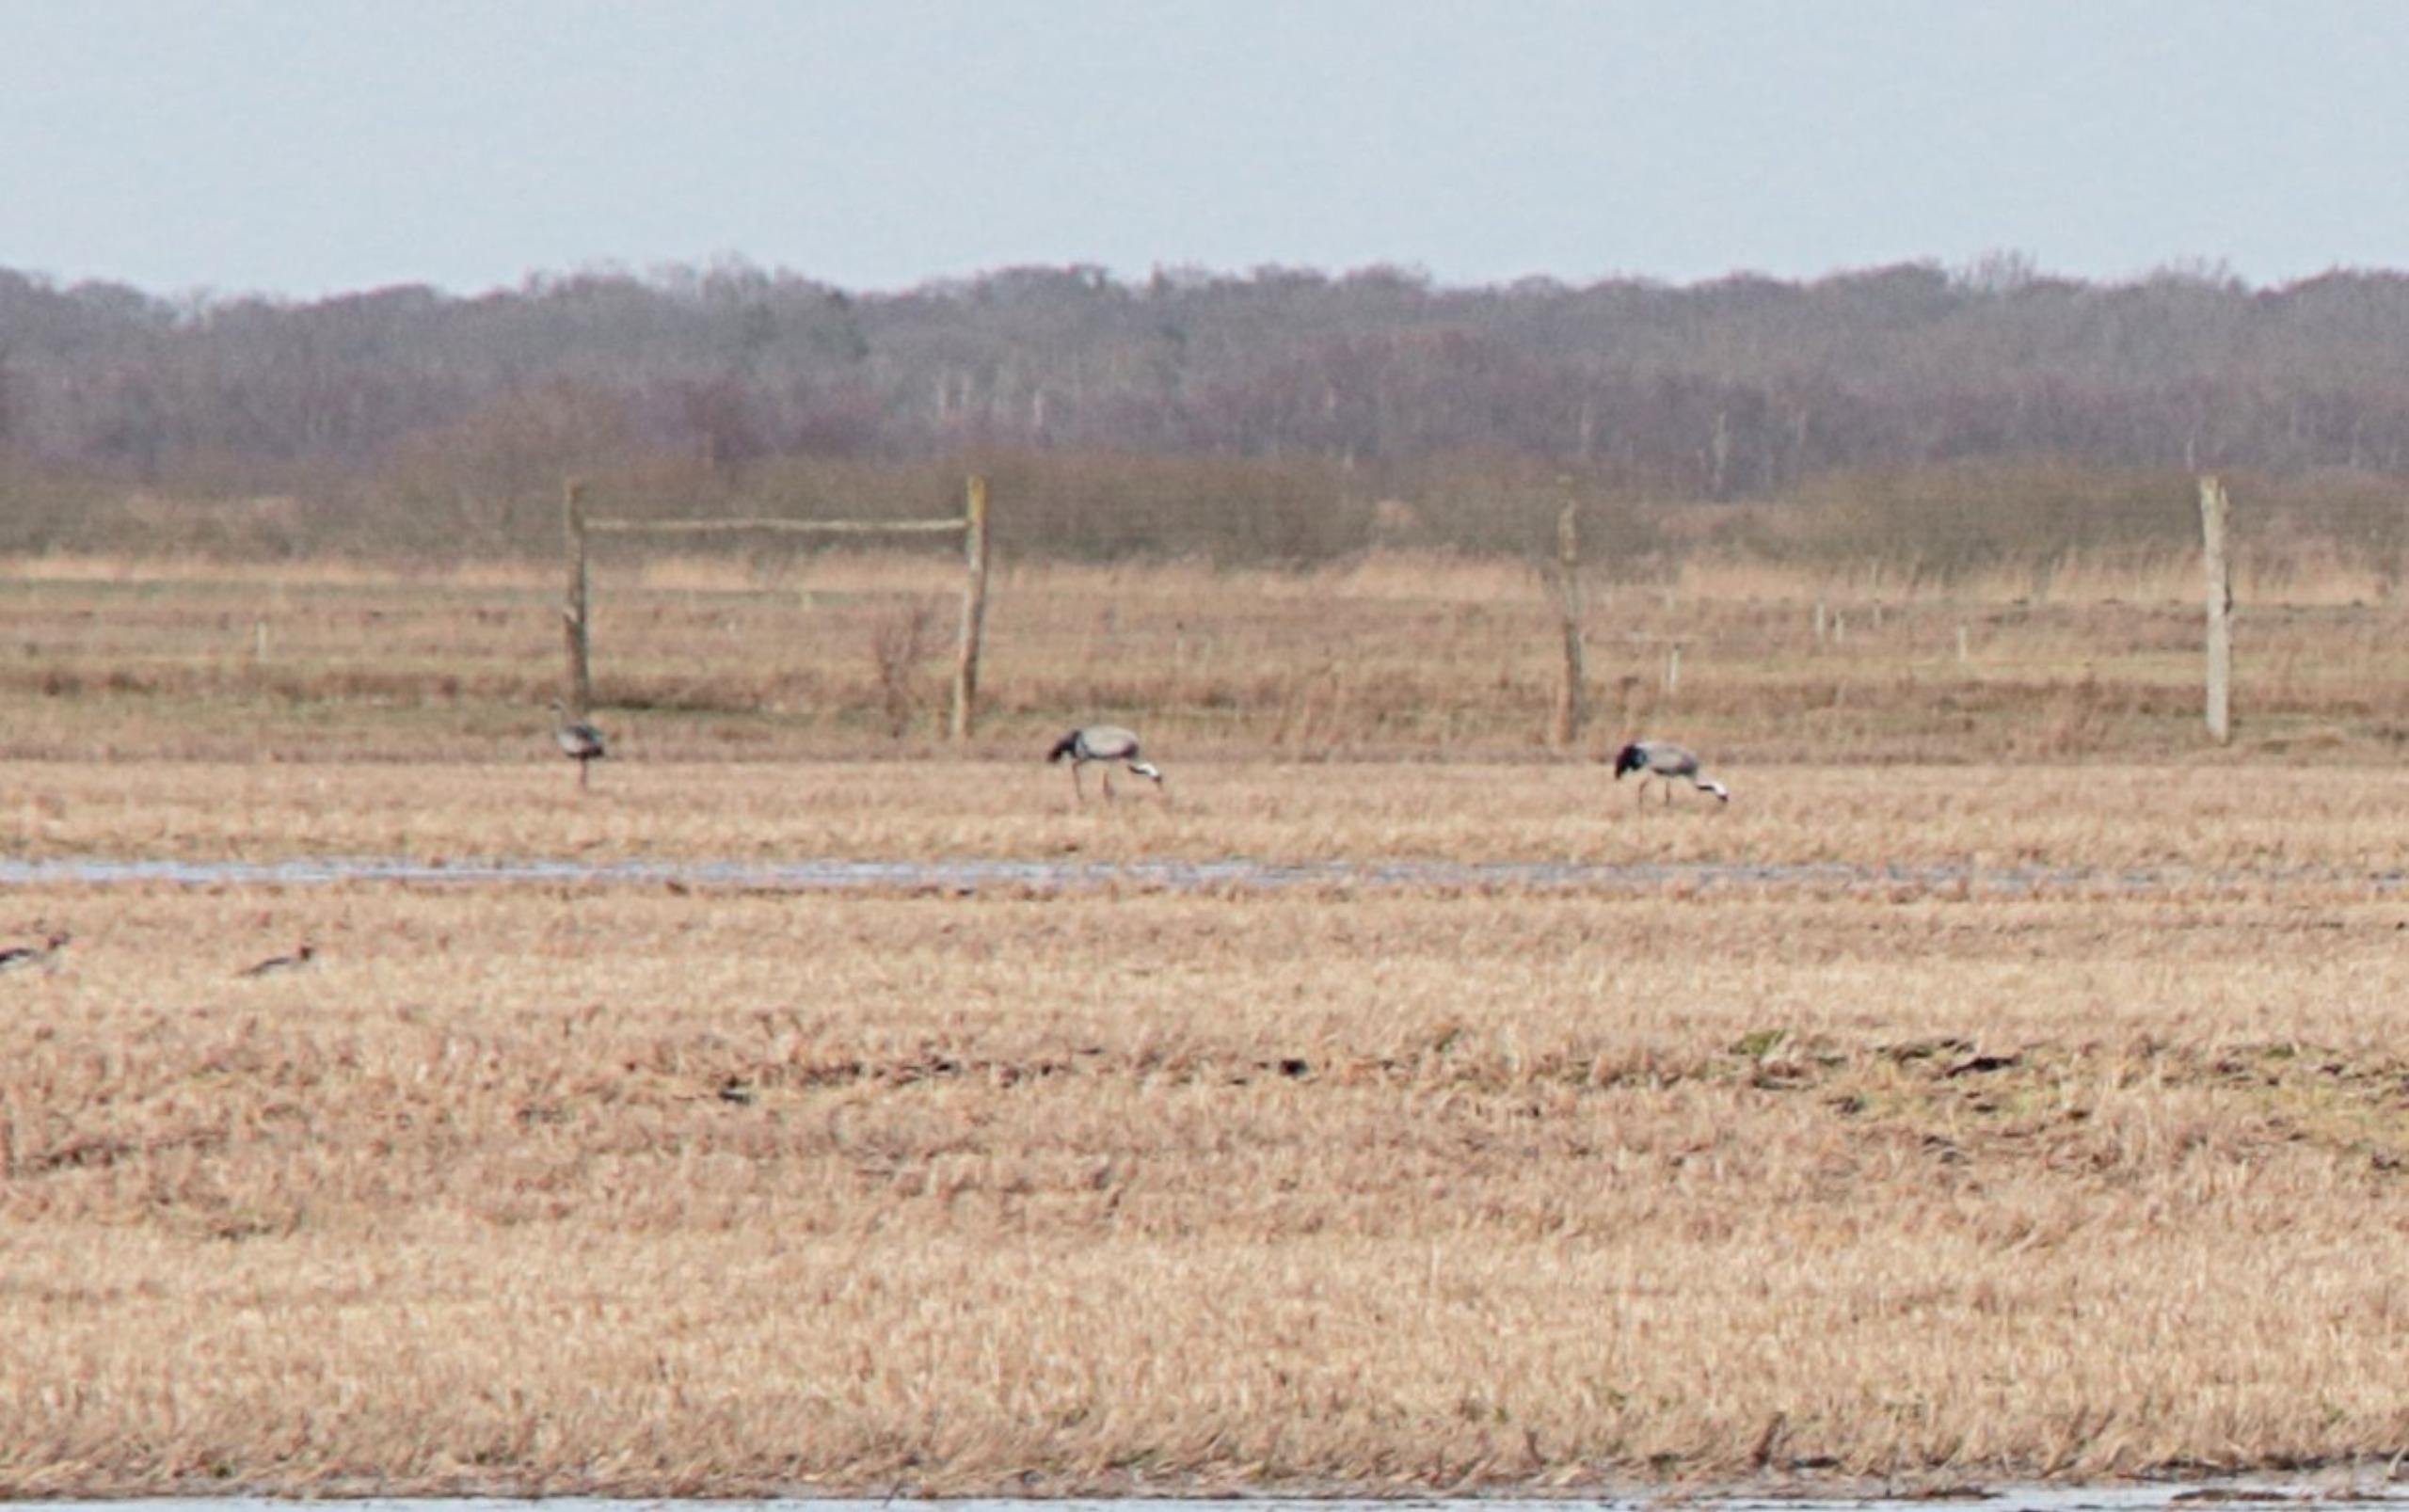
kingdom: Animalia
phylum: Chordata
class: Aves
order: Gruiformes
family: Gruidae
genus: Grus
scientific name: Grus grus
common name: Trane
